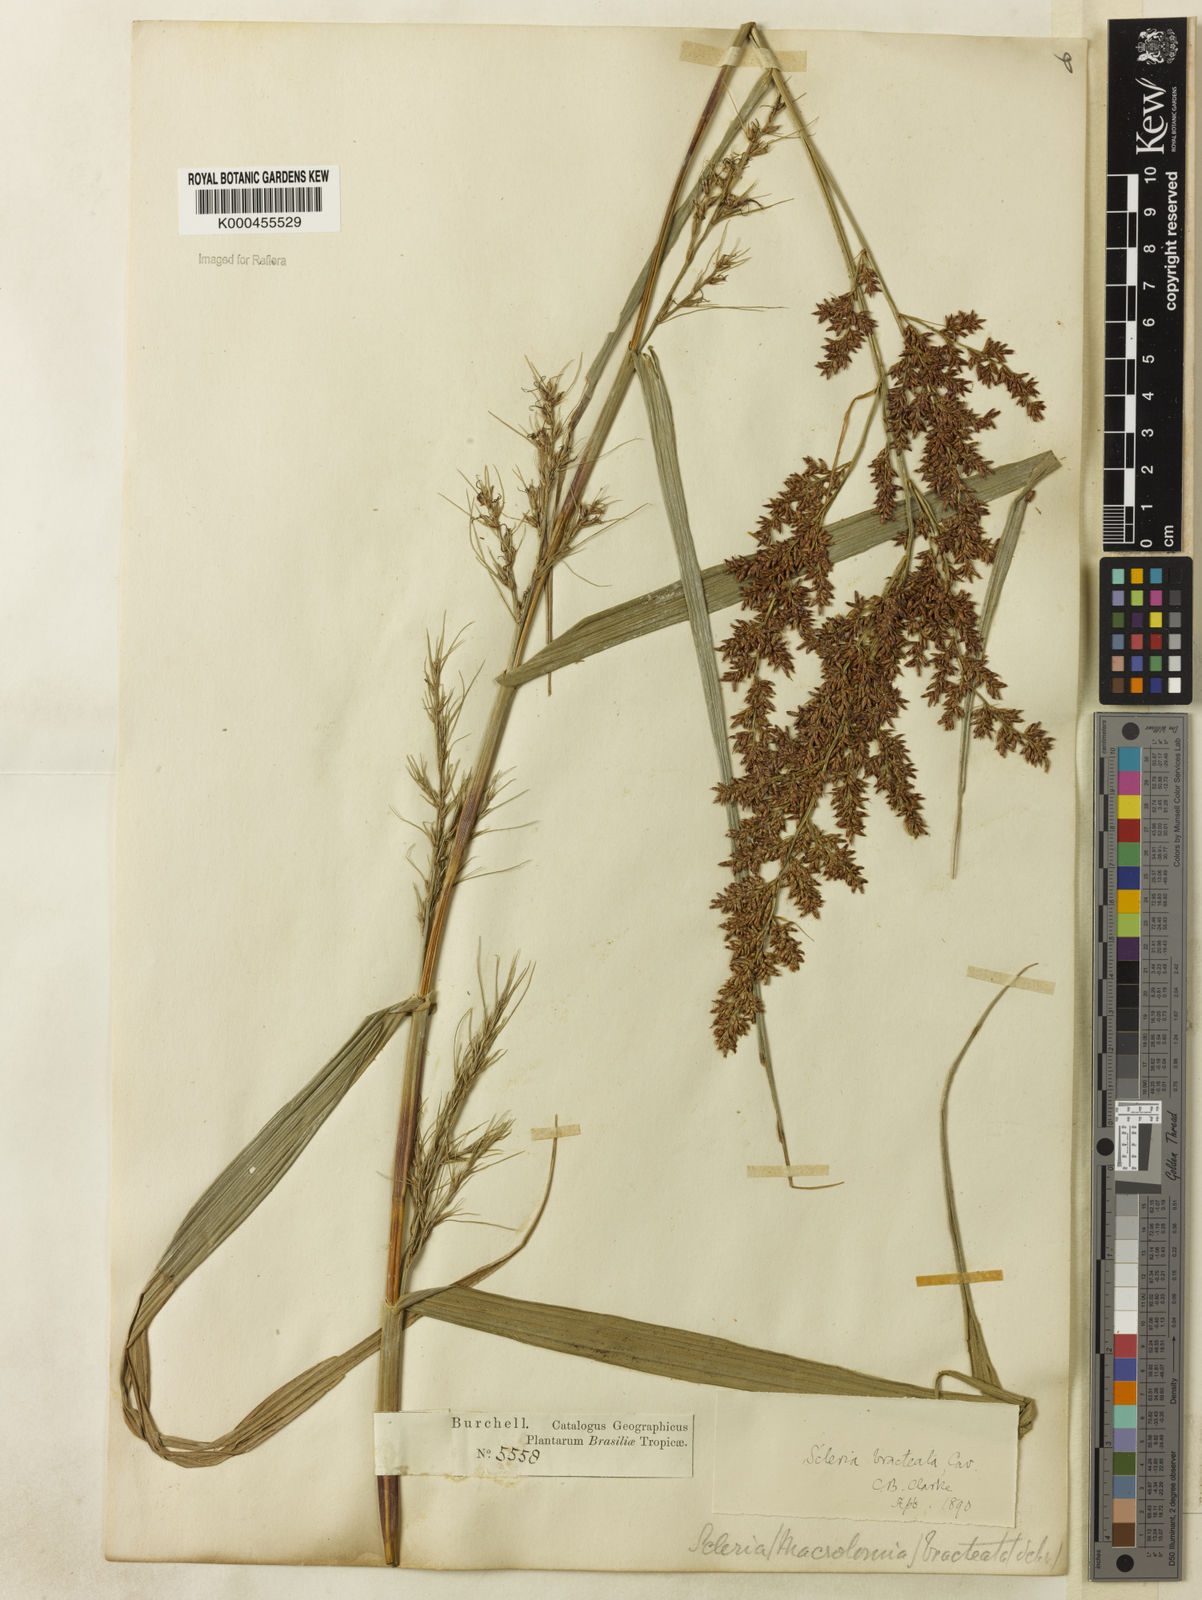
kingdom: Plantae
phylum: Tracheophyta
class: Liliopsida
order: Poales
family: Cyperaceae
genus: Scleria
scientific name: Scleria bracteata
